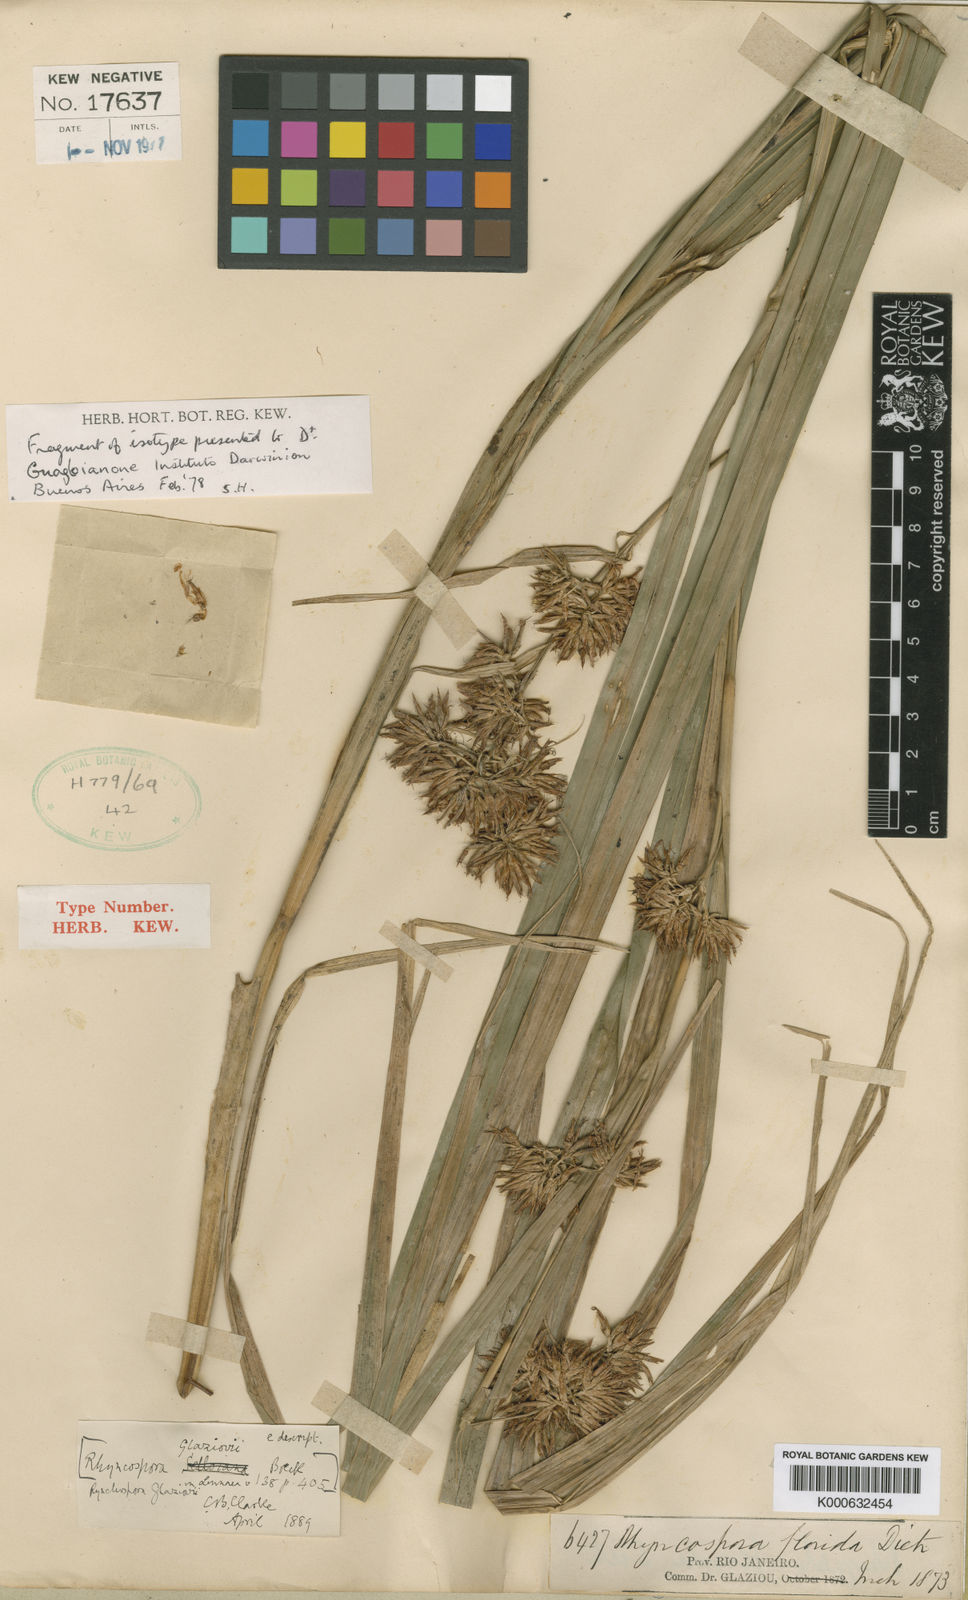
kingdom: Plantae
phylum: Tracheophyta
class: Liliopsida
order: Poales
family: Cyperaceae
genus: Rhynchospora
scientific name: Rhynchospora glaziovii
